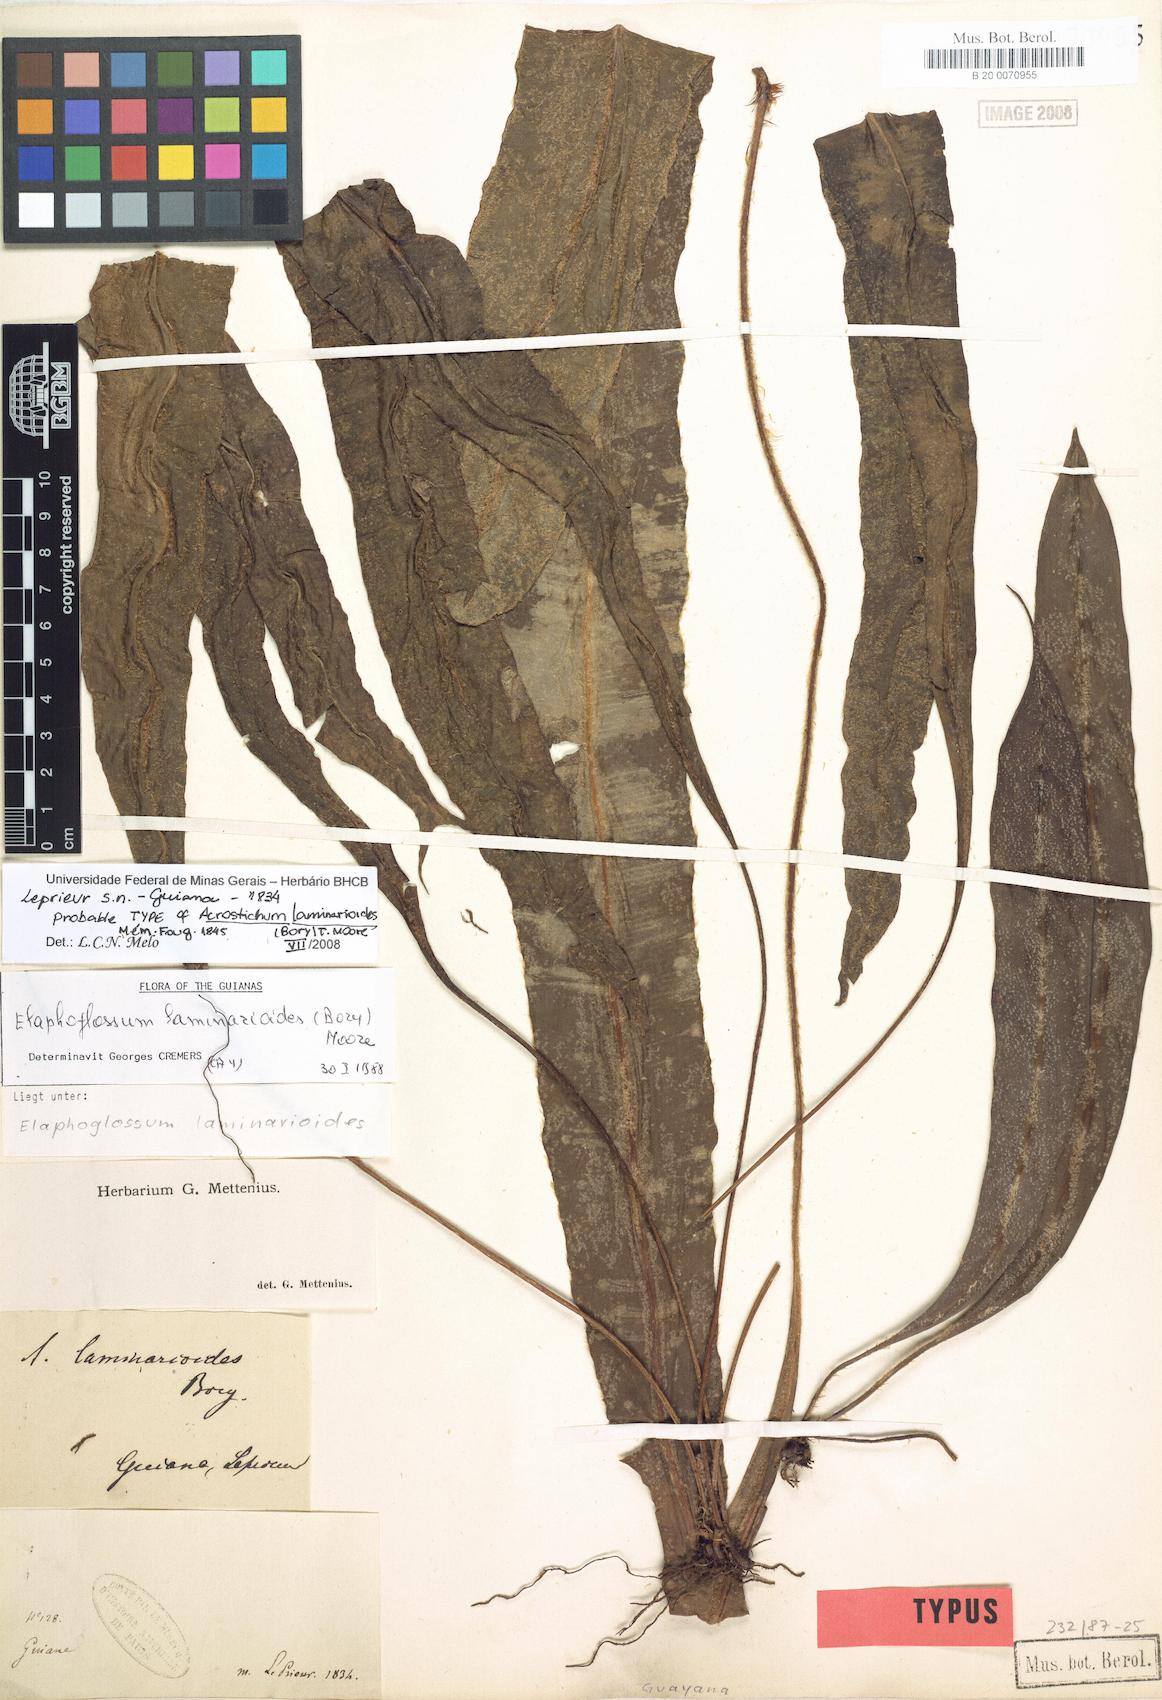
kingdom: Plantae
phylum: Tracheophyta
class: Polypodiopsida
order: Polypodiales
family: Dryopteridaceae
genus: Elaphoglossum
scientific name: Elaphoglossum laminarioides
